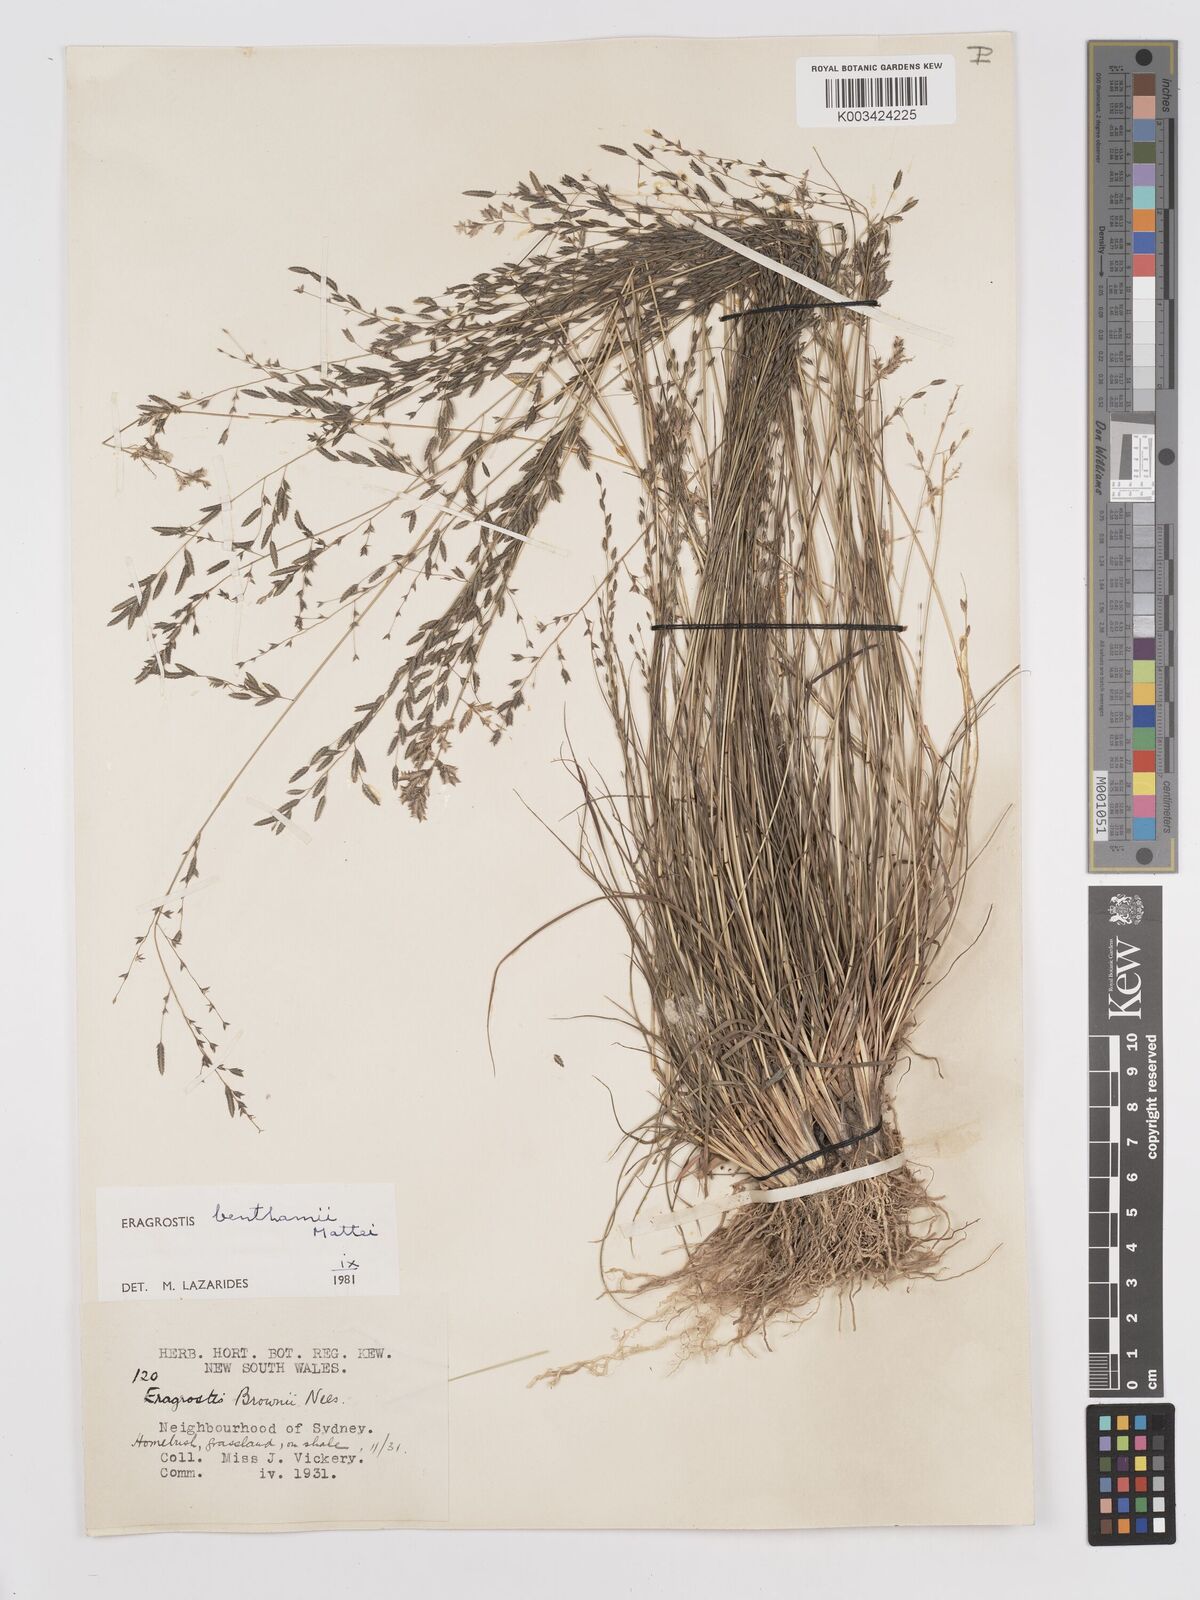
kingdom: Plantae
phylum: Tracheophyta
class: Liliopsida
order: Poales
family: Poaceae
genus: Eragrostis
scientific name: Eragrostis brownii
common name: Lovegrass
